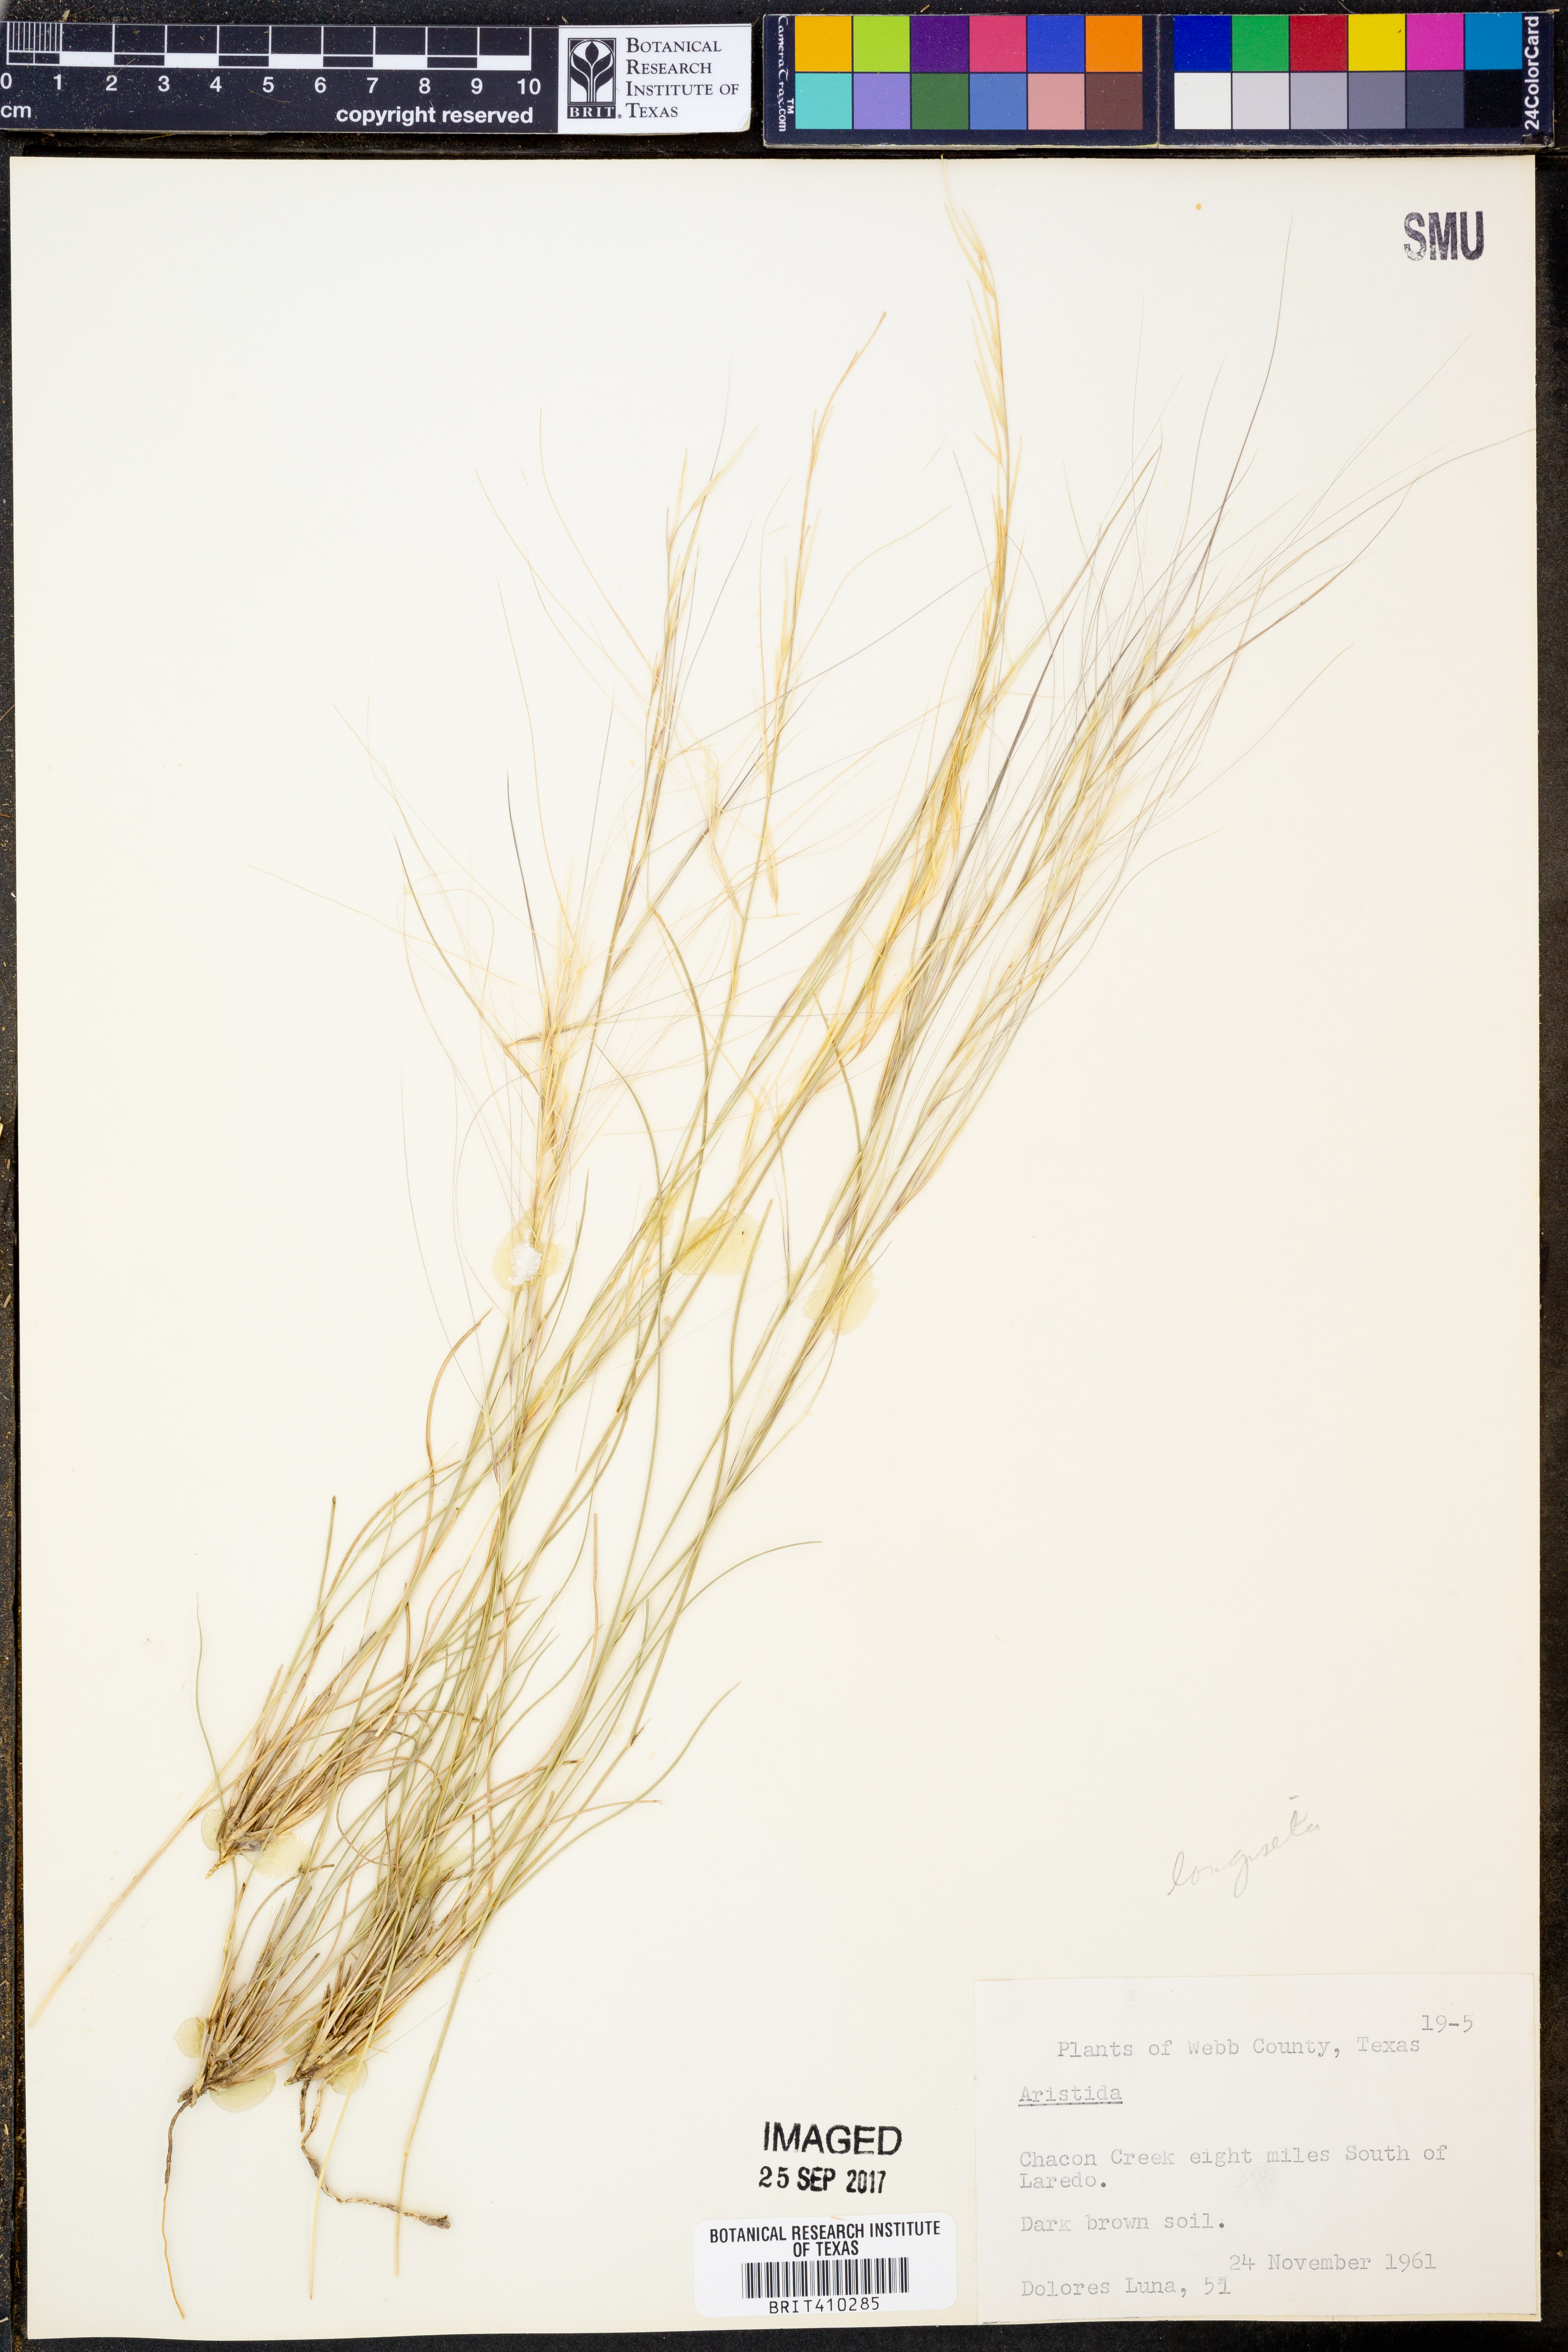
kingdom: Plantae
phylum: Tracheophyta
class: Liliopsida
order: Poales
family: Poaceae
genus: Aristida
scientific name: Aristida
